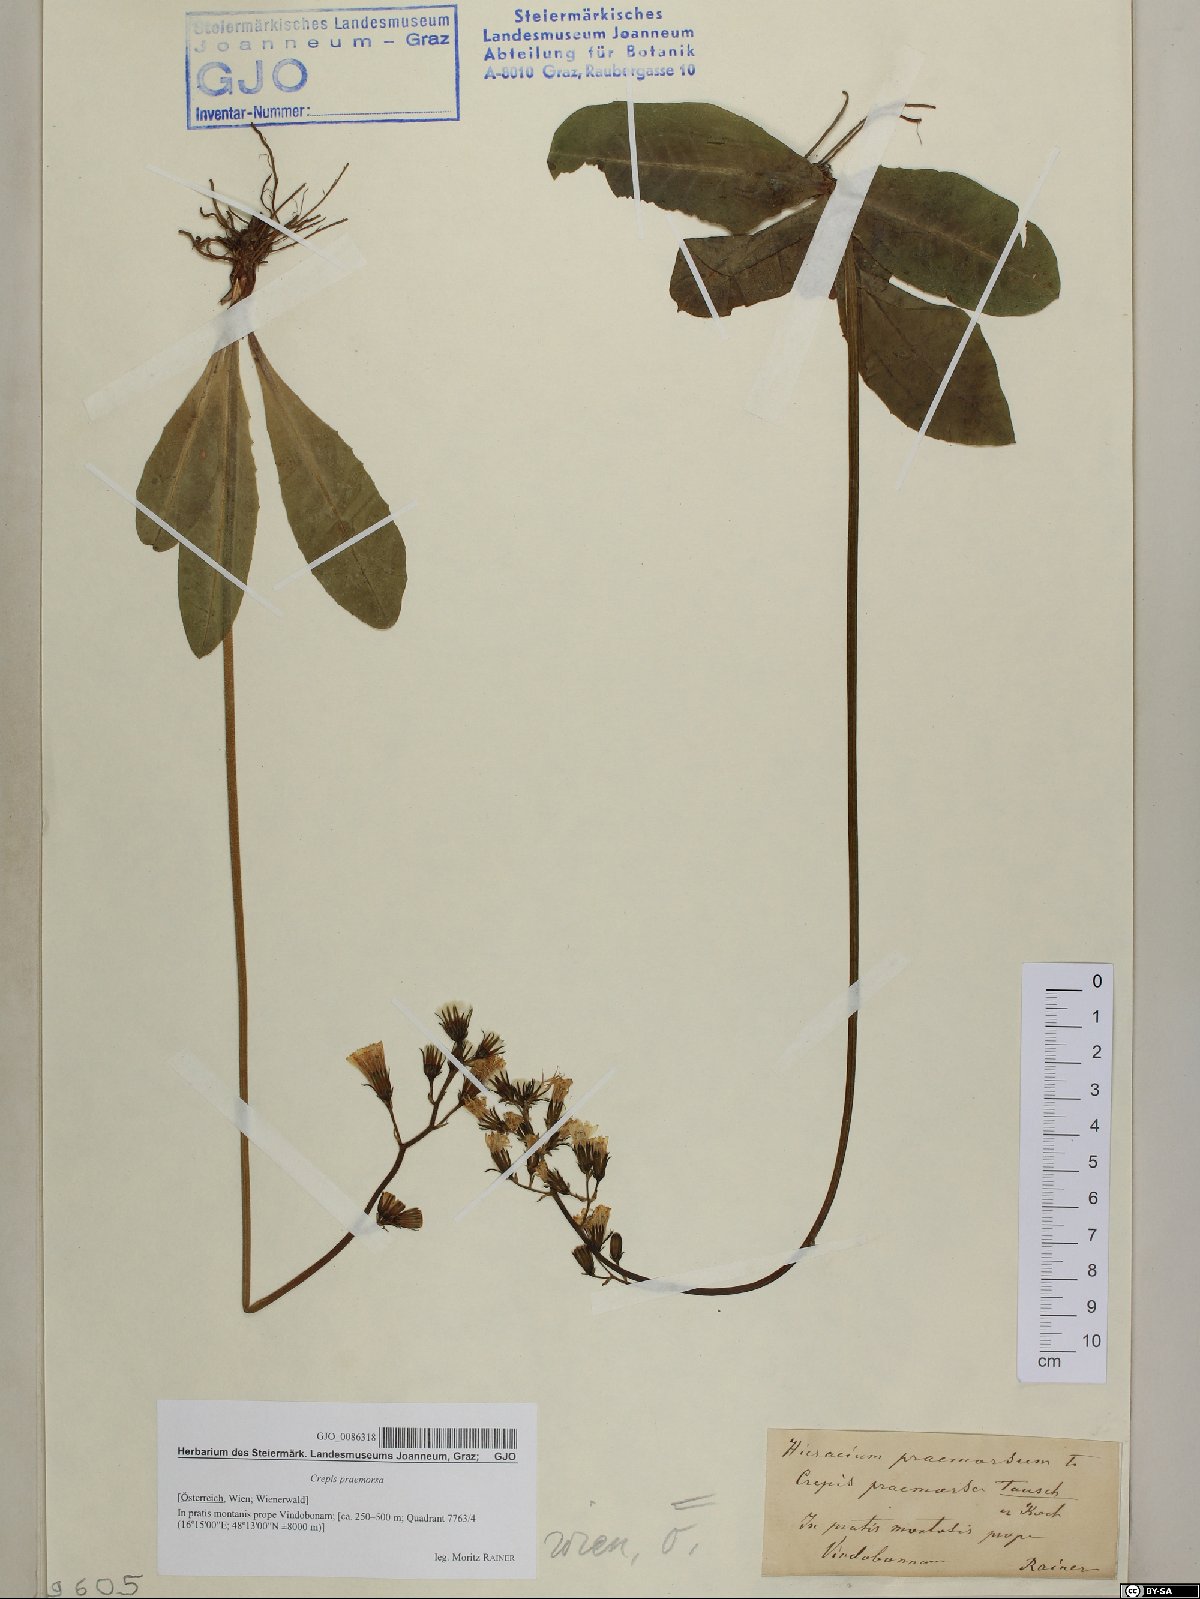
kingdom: Plantae
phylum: Tracheophyta
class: Magnoliopsida
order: Asterales
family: Asteraceae
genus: Crepis
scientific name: Crepis praemorsa
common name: Leafless hawk's-beard
